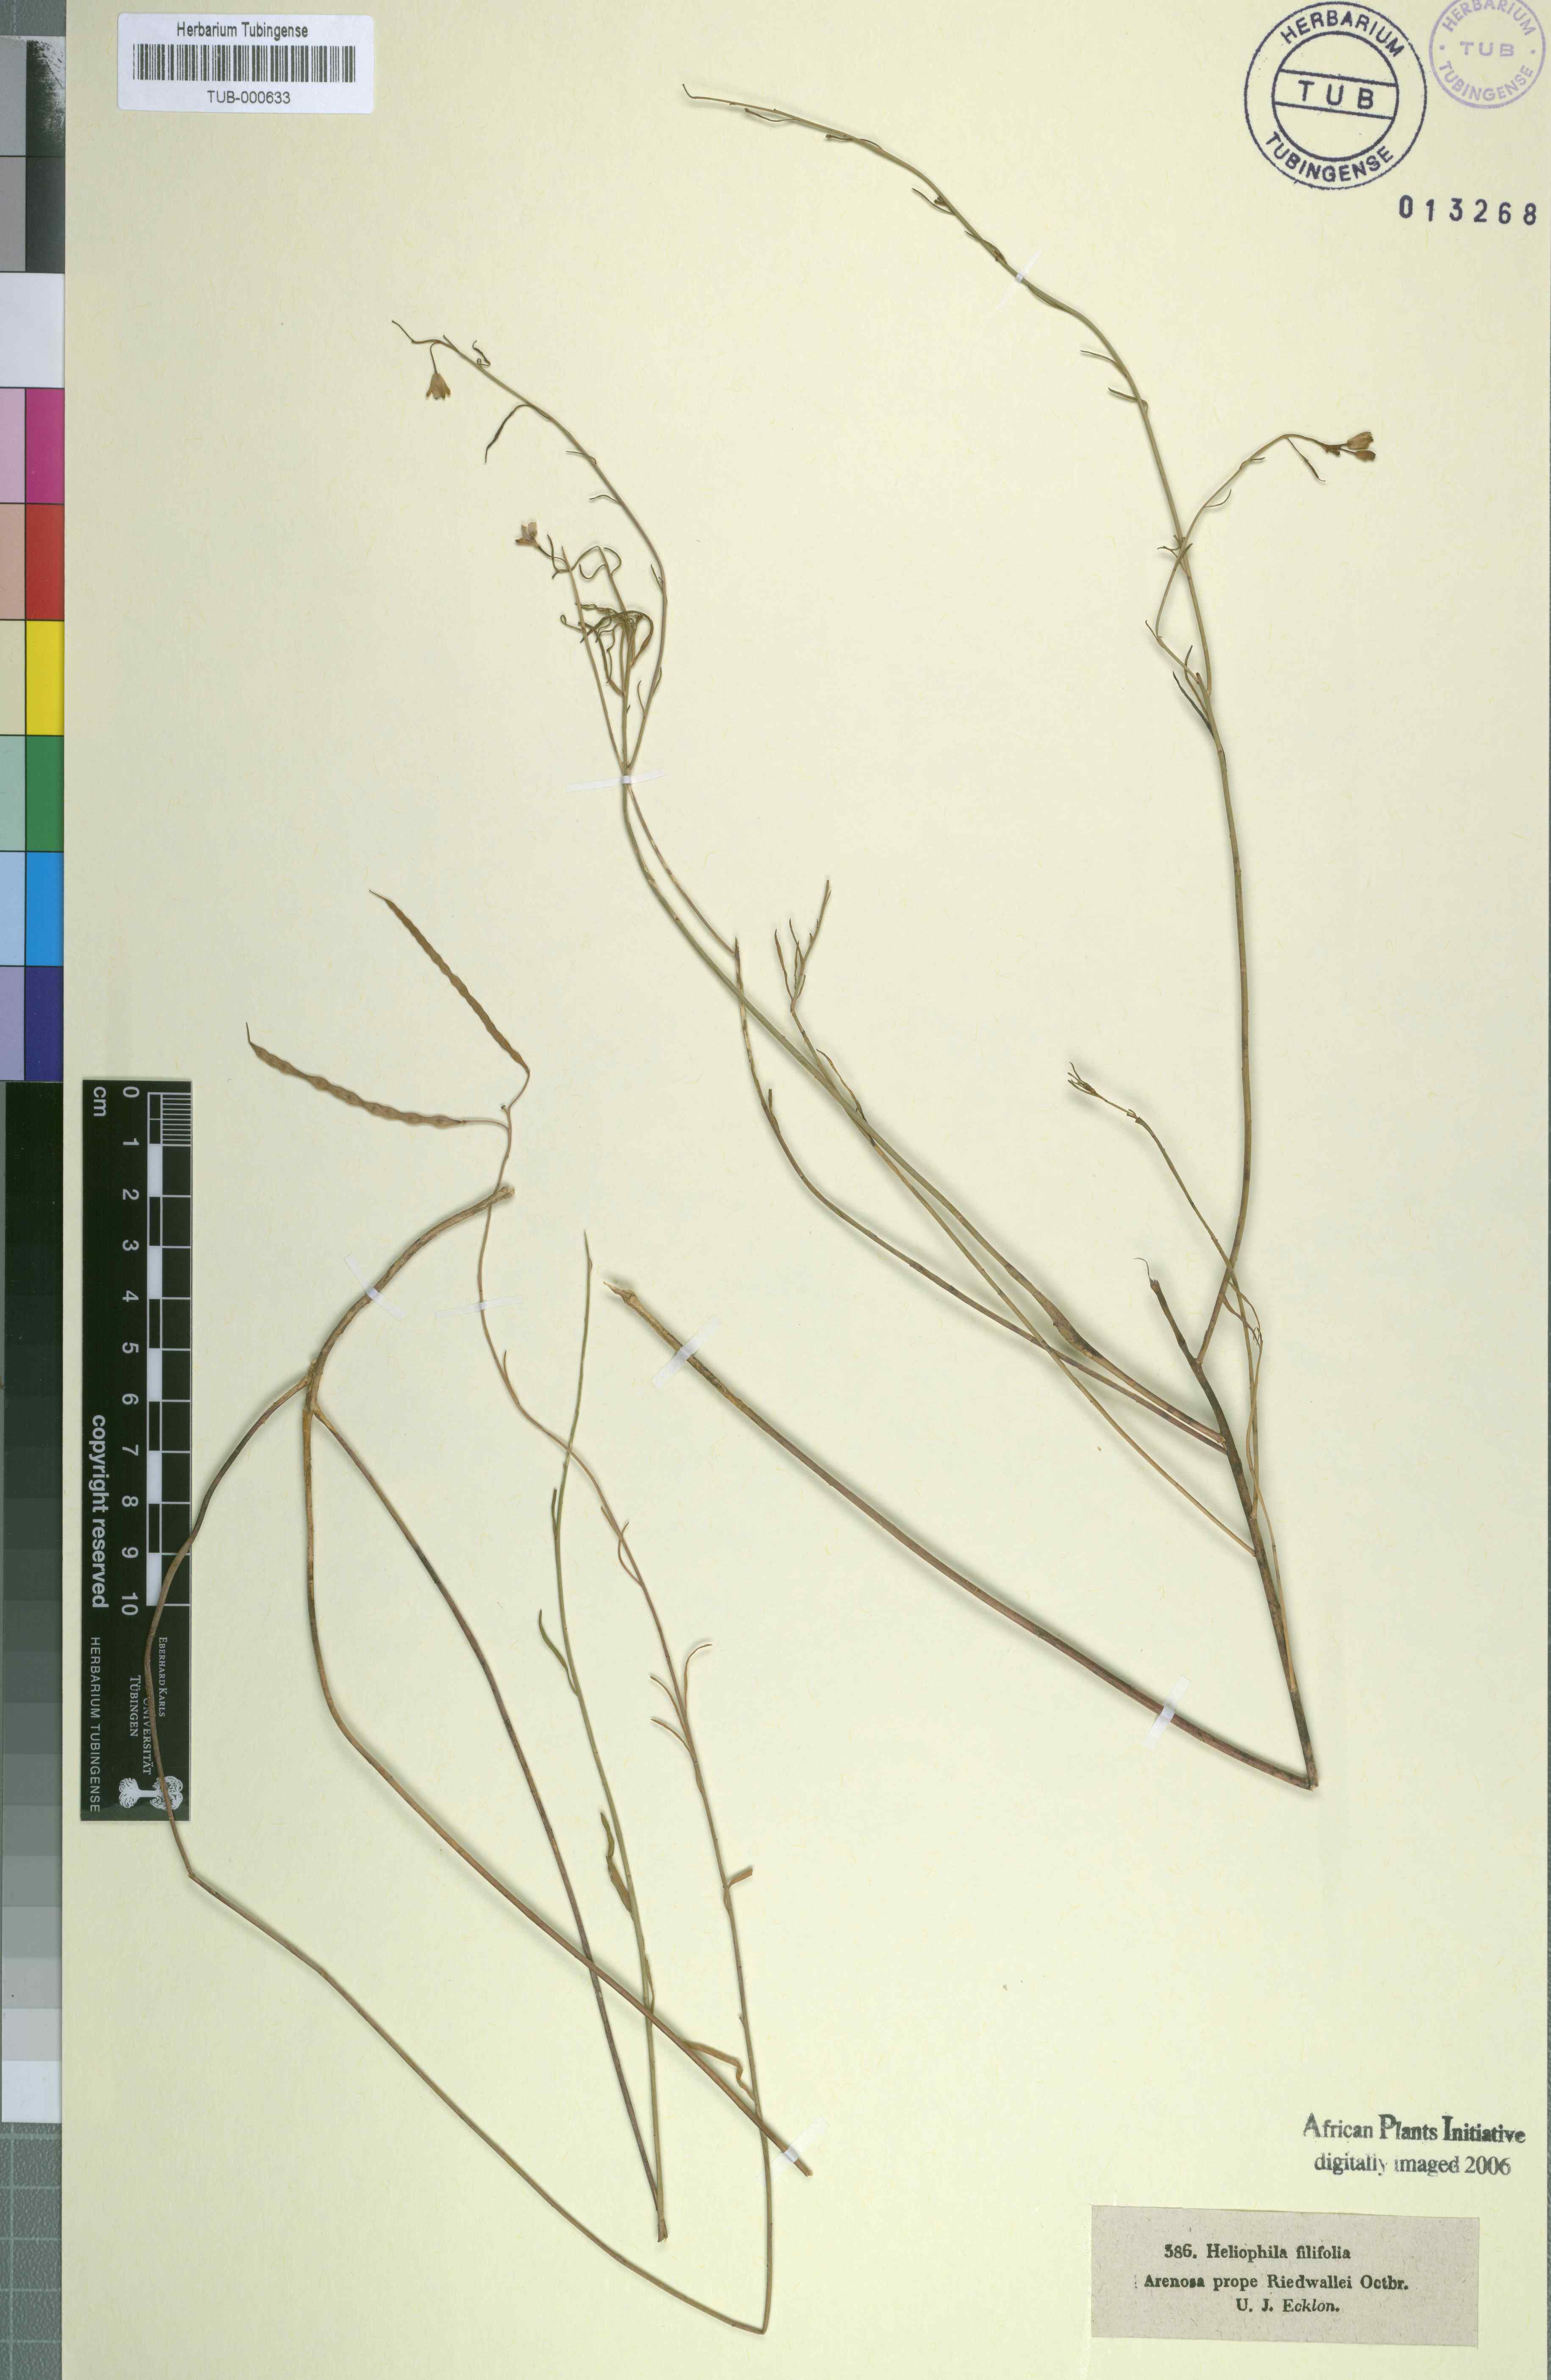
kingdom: Plantae
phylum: Tracheophyta
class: Magnoliopsida
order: Brassicales
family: Brassicaceae
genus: Heliophila
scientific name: Heliophila
